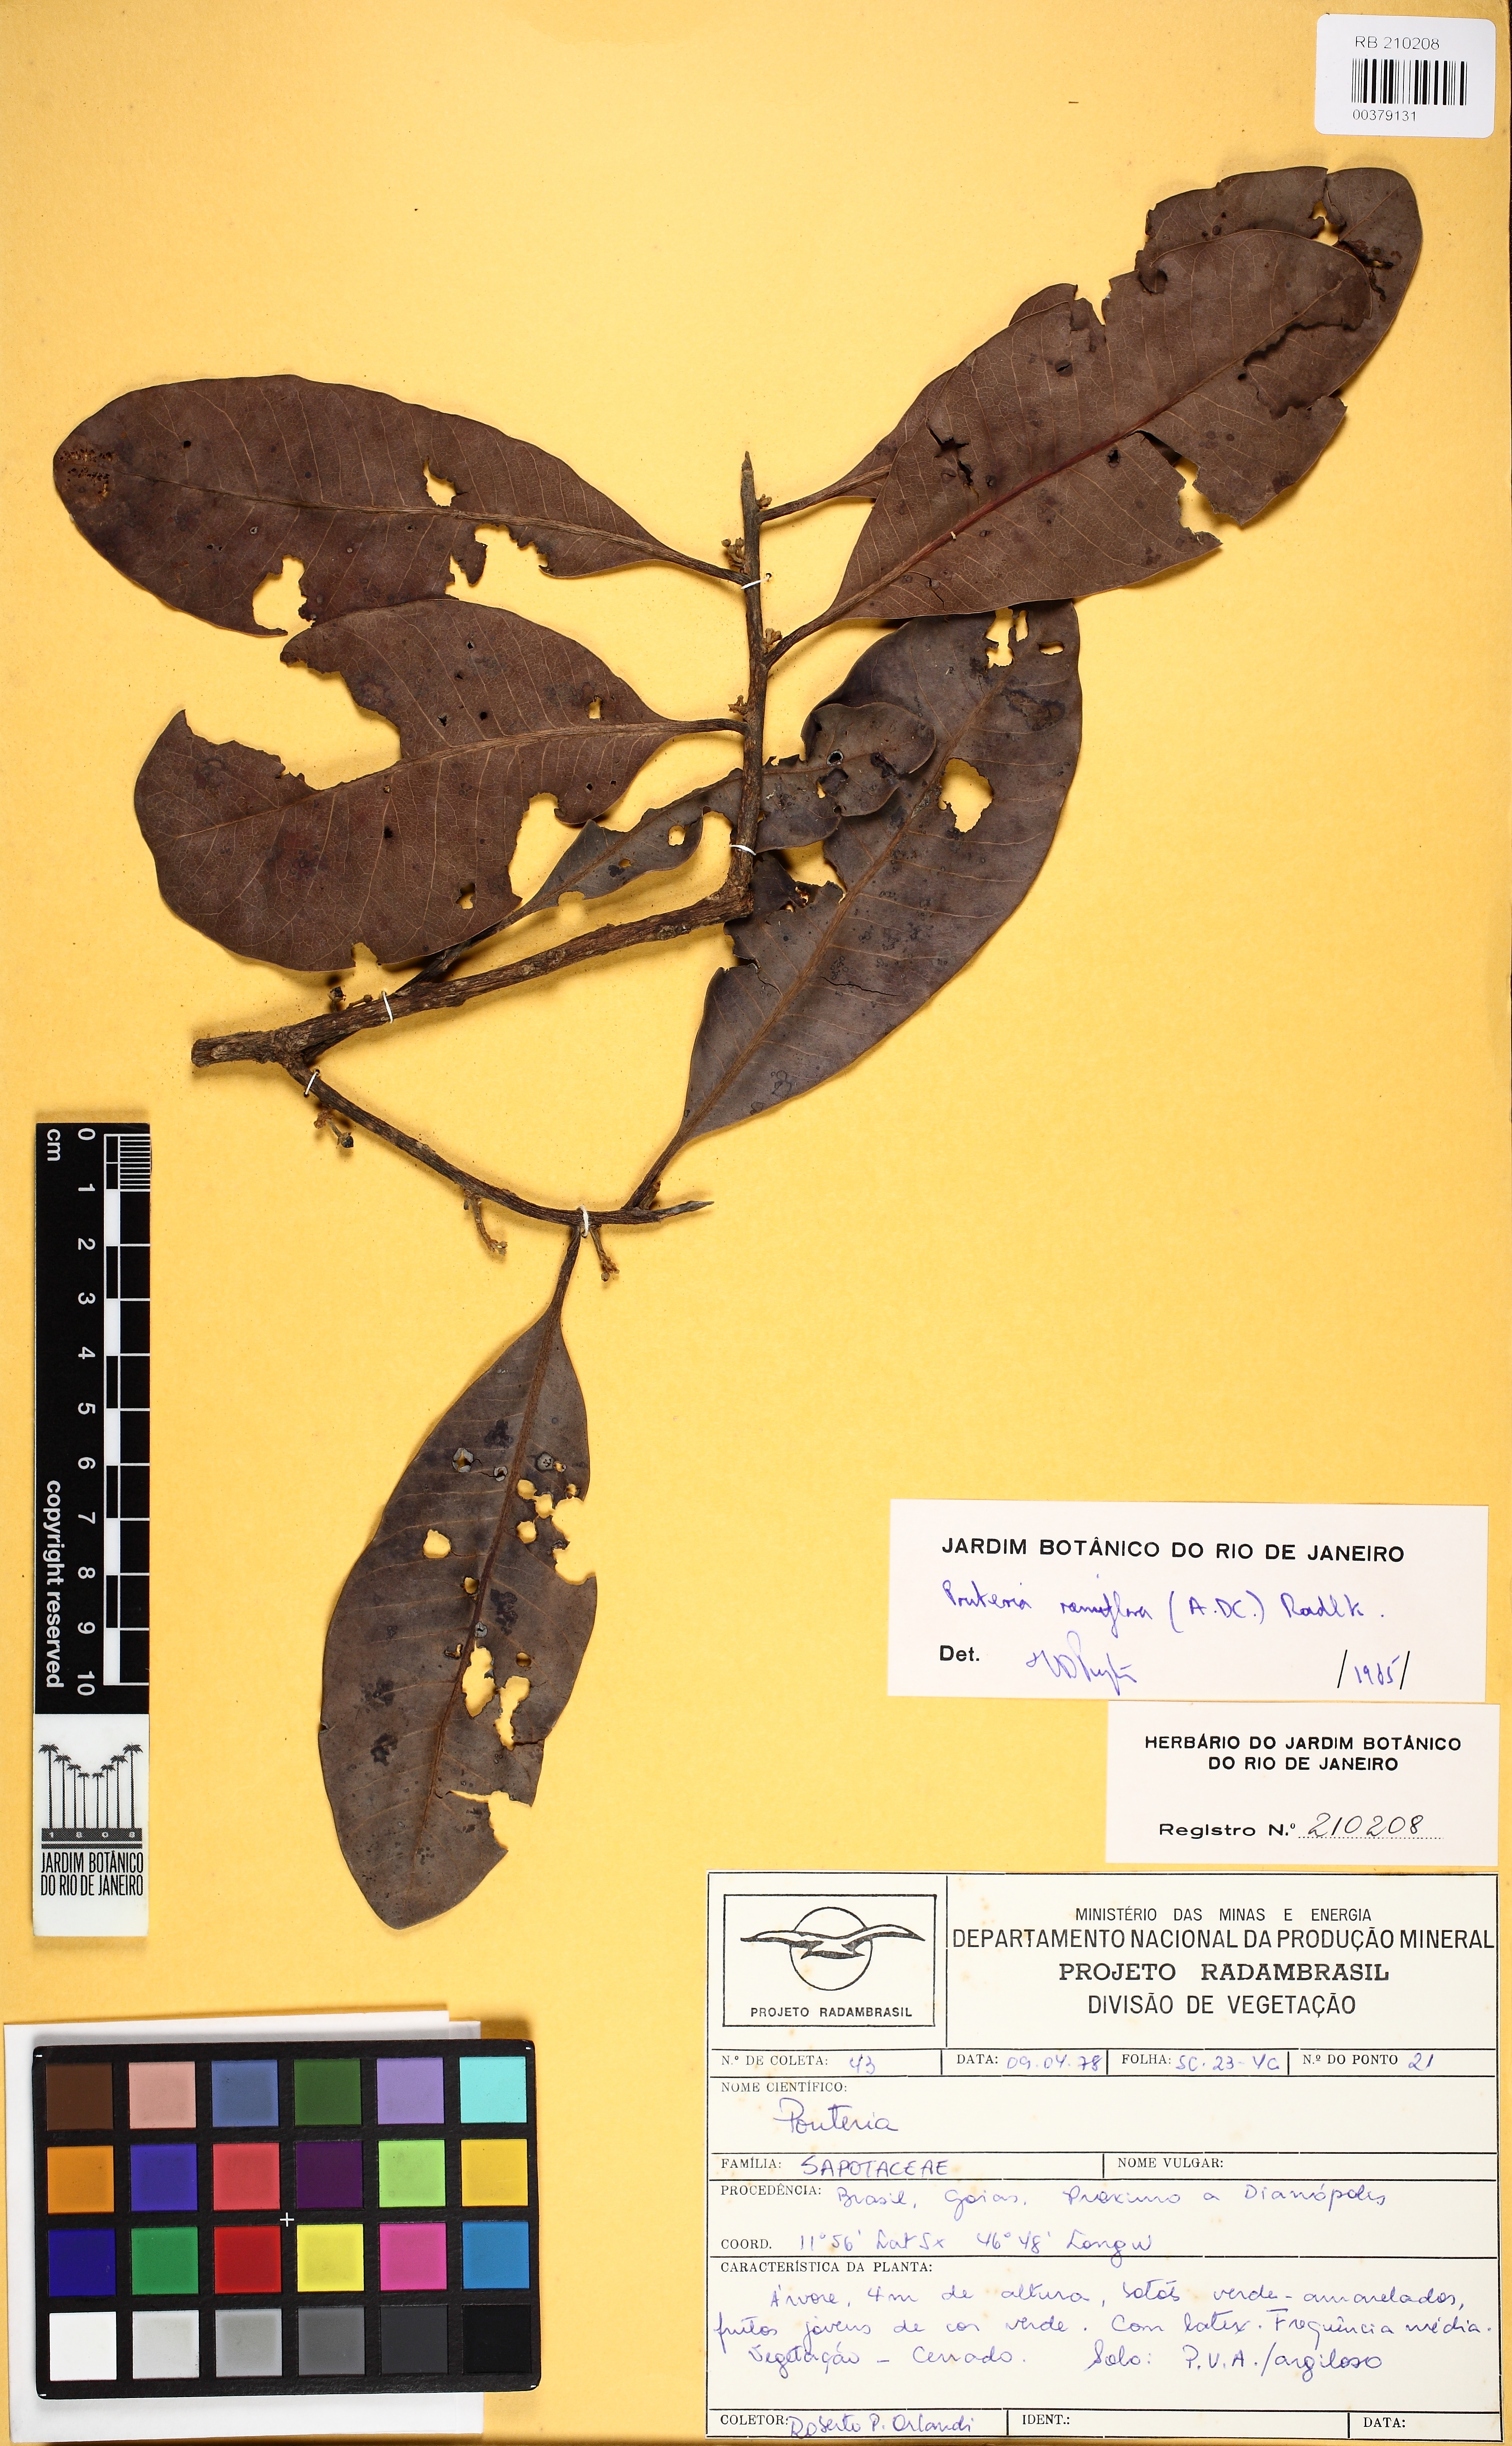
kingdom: Plantae
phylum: Tracheophyta
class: Magnoliopsida
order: Ericales
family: Sapotaceae
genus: Pouteria
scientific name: Pouteria ramiflora
